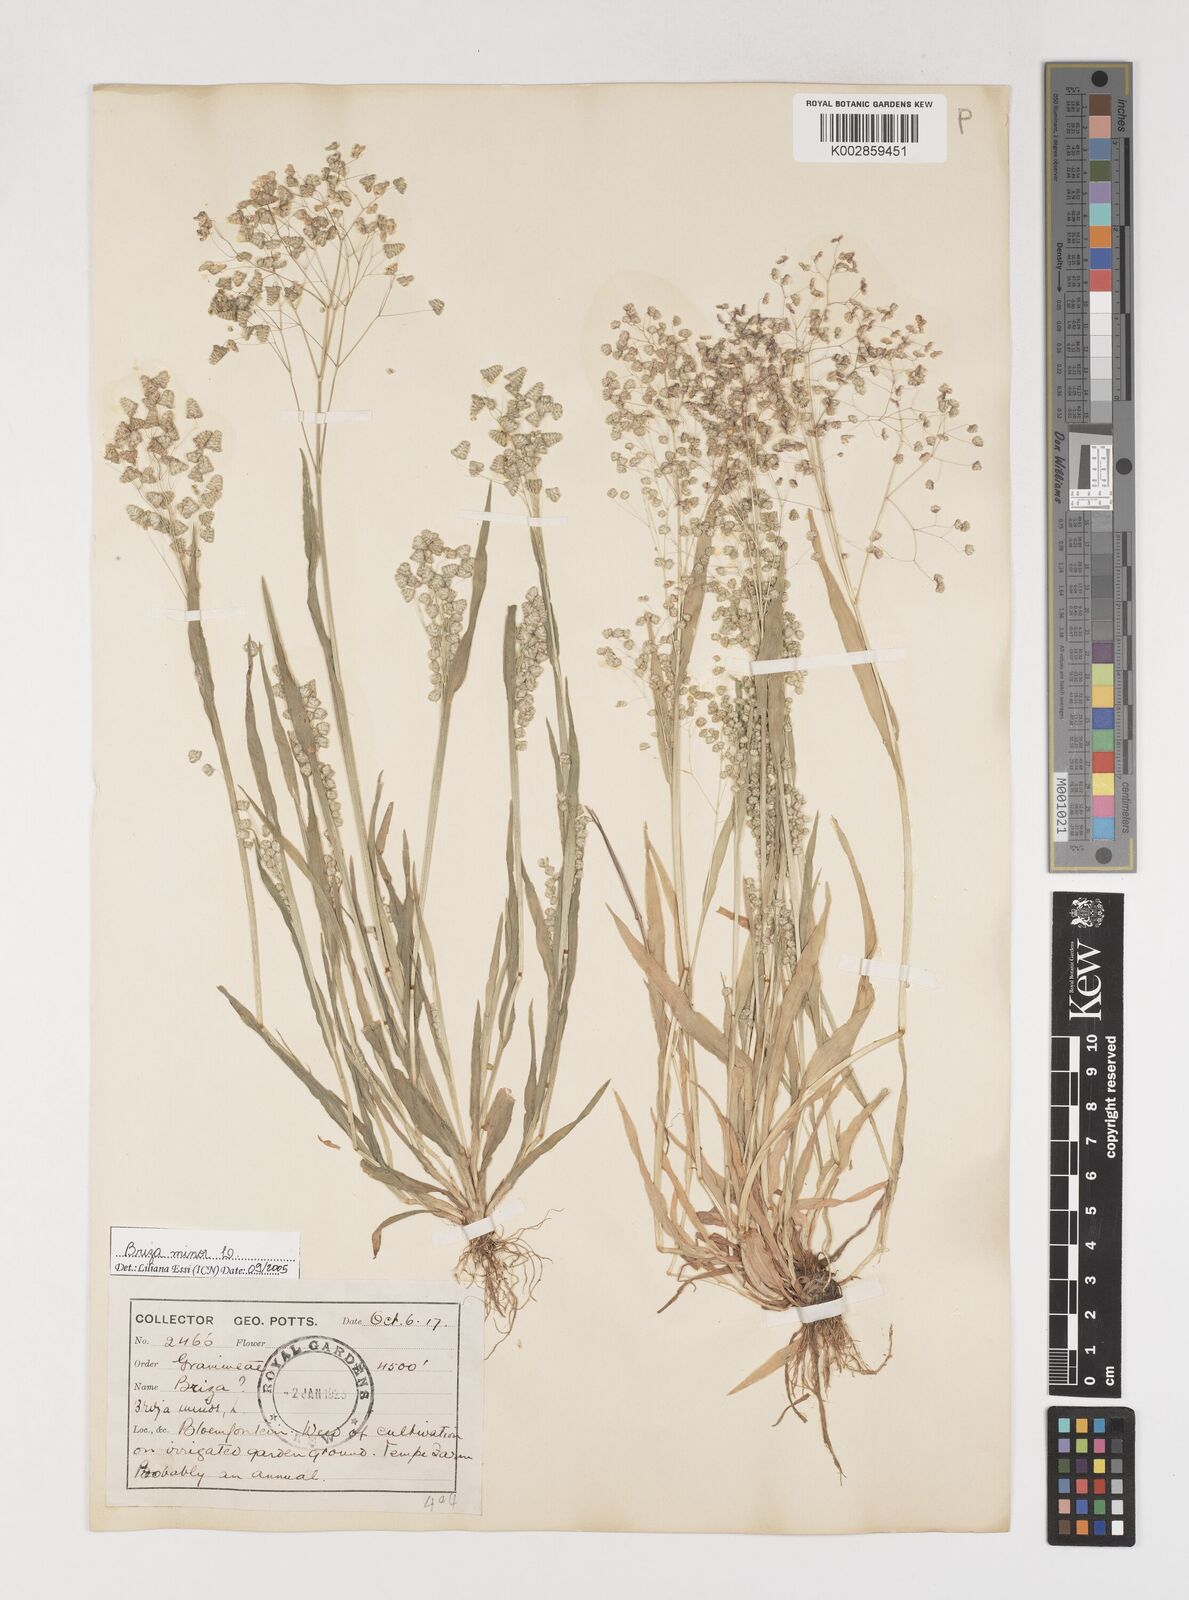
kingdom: Plantae
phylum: Tracheophyta
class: Liliopsida
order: Poales
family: Poaceae
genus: Briza
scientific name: Briza minor
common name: Lesser quaking-grass
